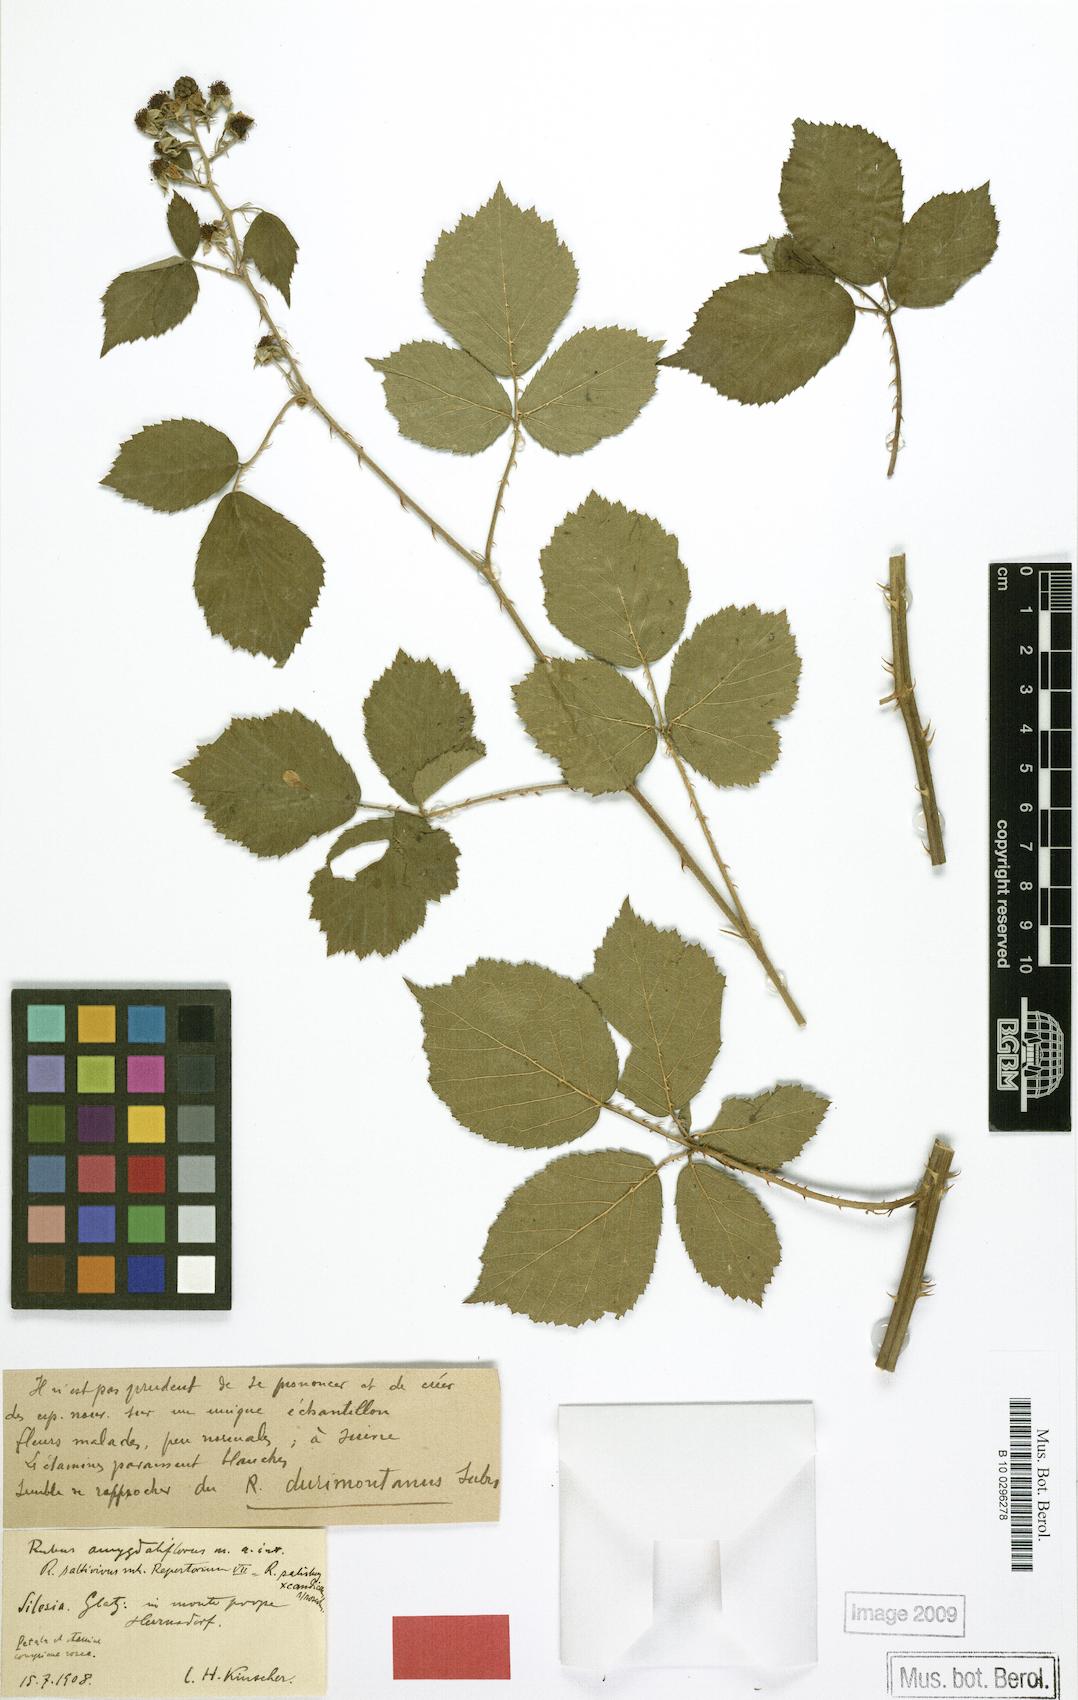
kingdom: Plantae
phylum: Tracheophyta
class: Magnoliopsida
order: Rosales
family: Rosaceae
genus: Rubus
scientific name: Rubus saltivivus
